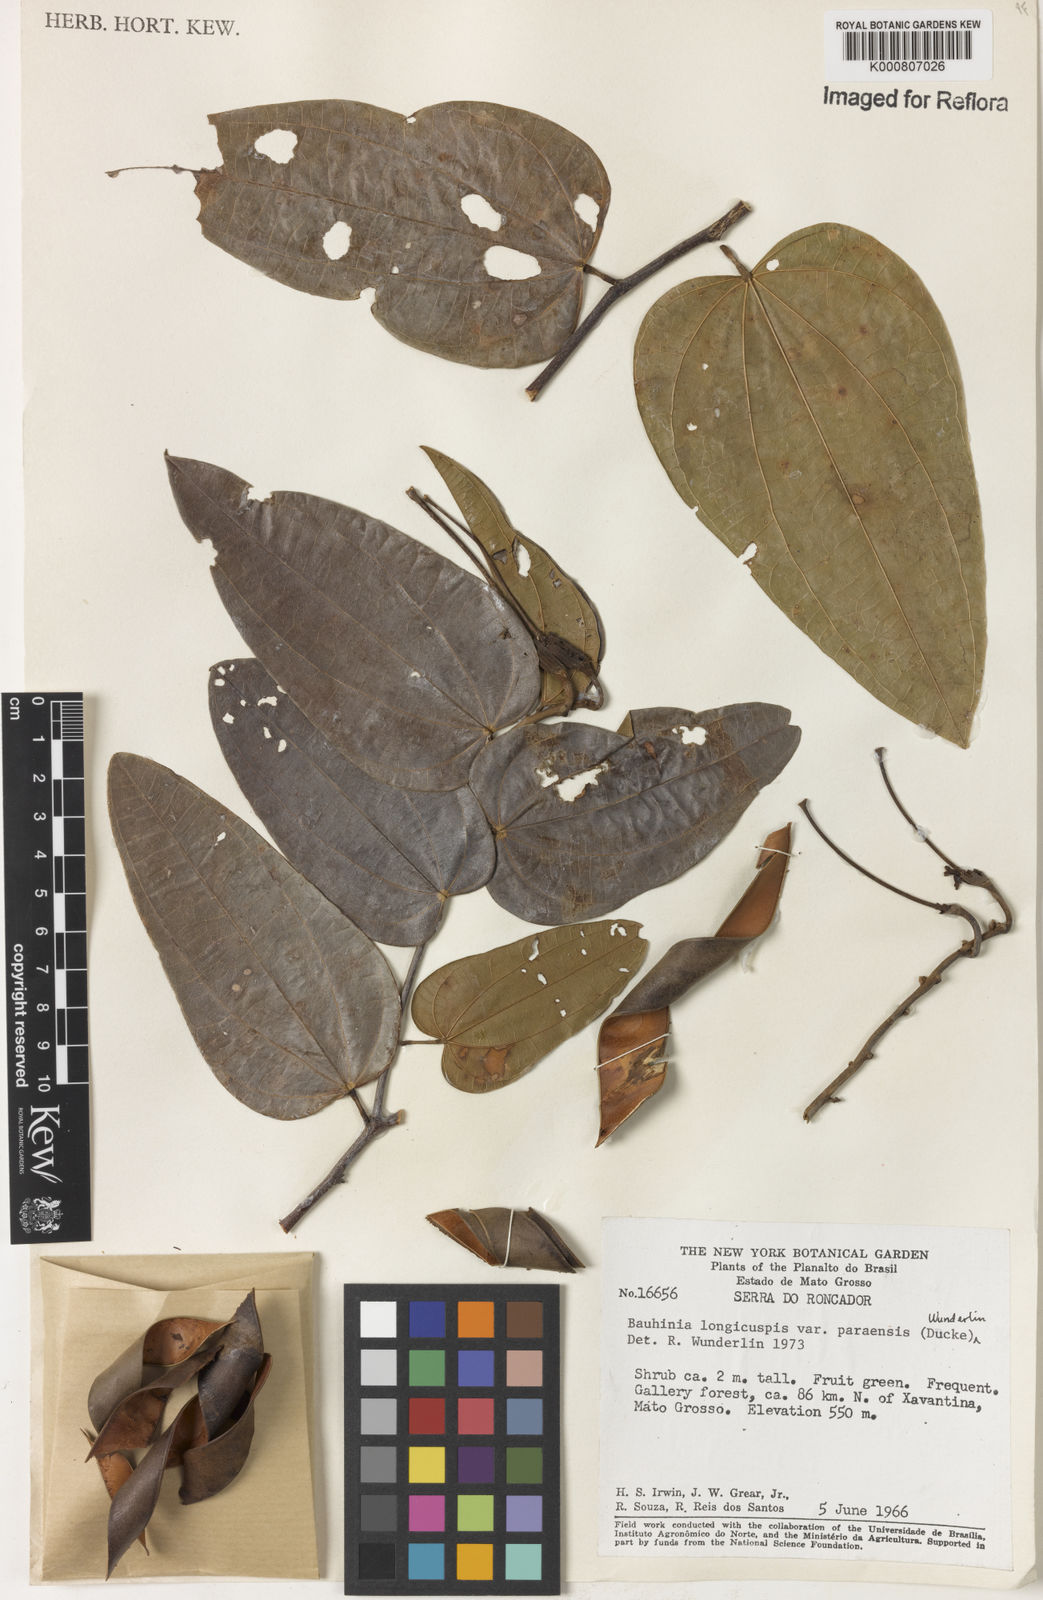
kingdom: Plantae
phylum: Tracheophyta
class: Magnoliopsida
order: Fabales
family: Fabaceae
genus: Bauhinia
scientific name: Bauhinia longicuspis
